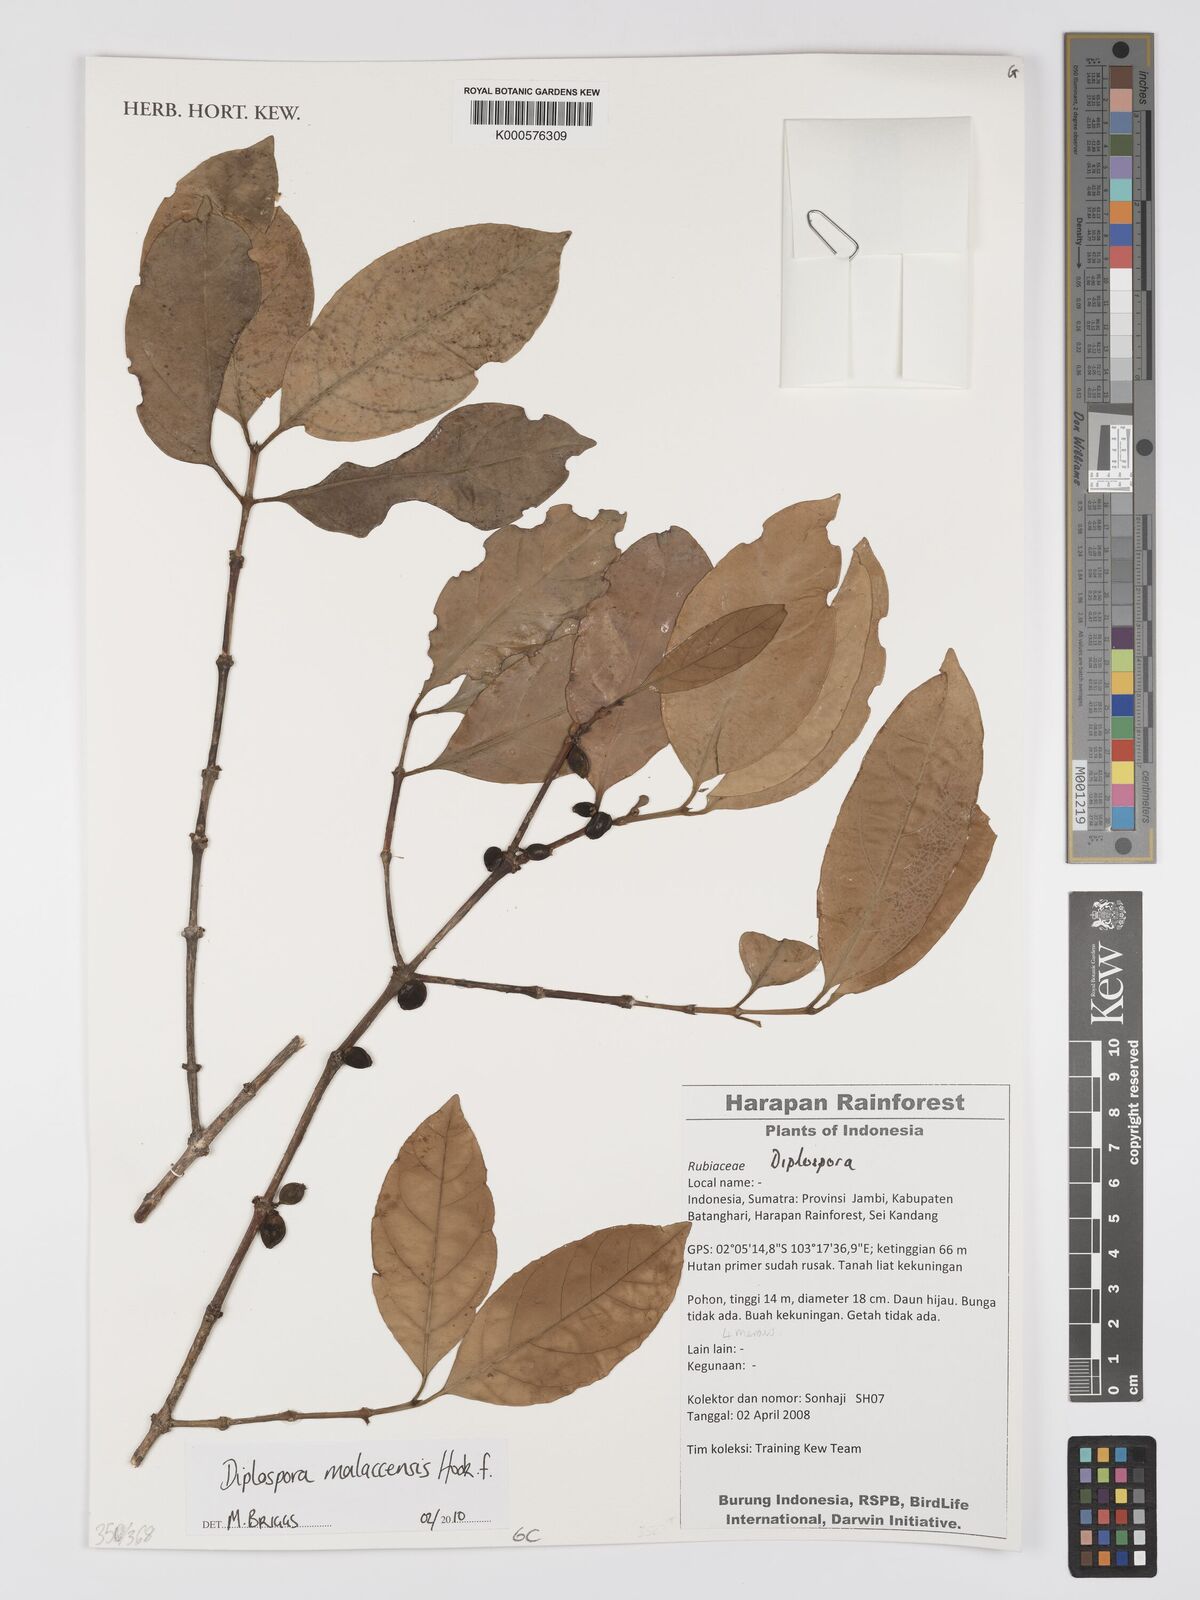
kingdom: Plantae
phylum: Tracheophyta
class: Magnoliopsida
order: Gentianales
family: Rubiaceae
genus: Discospermum
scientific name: Discospermum malaccense
